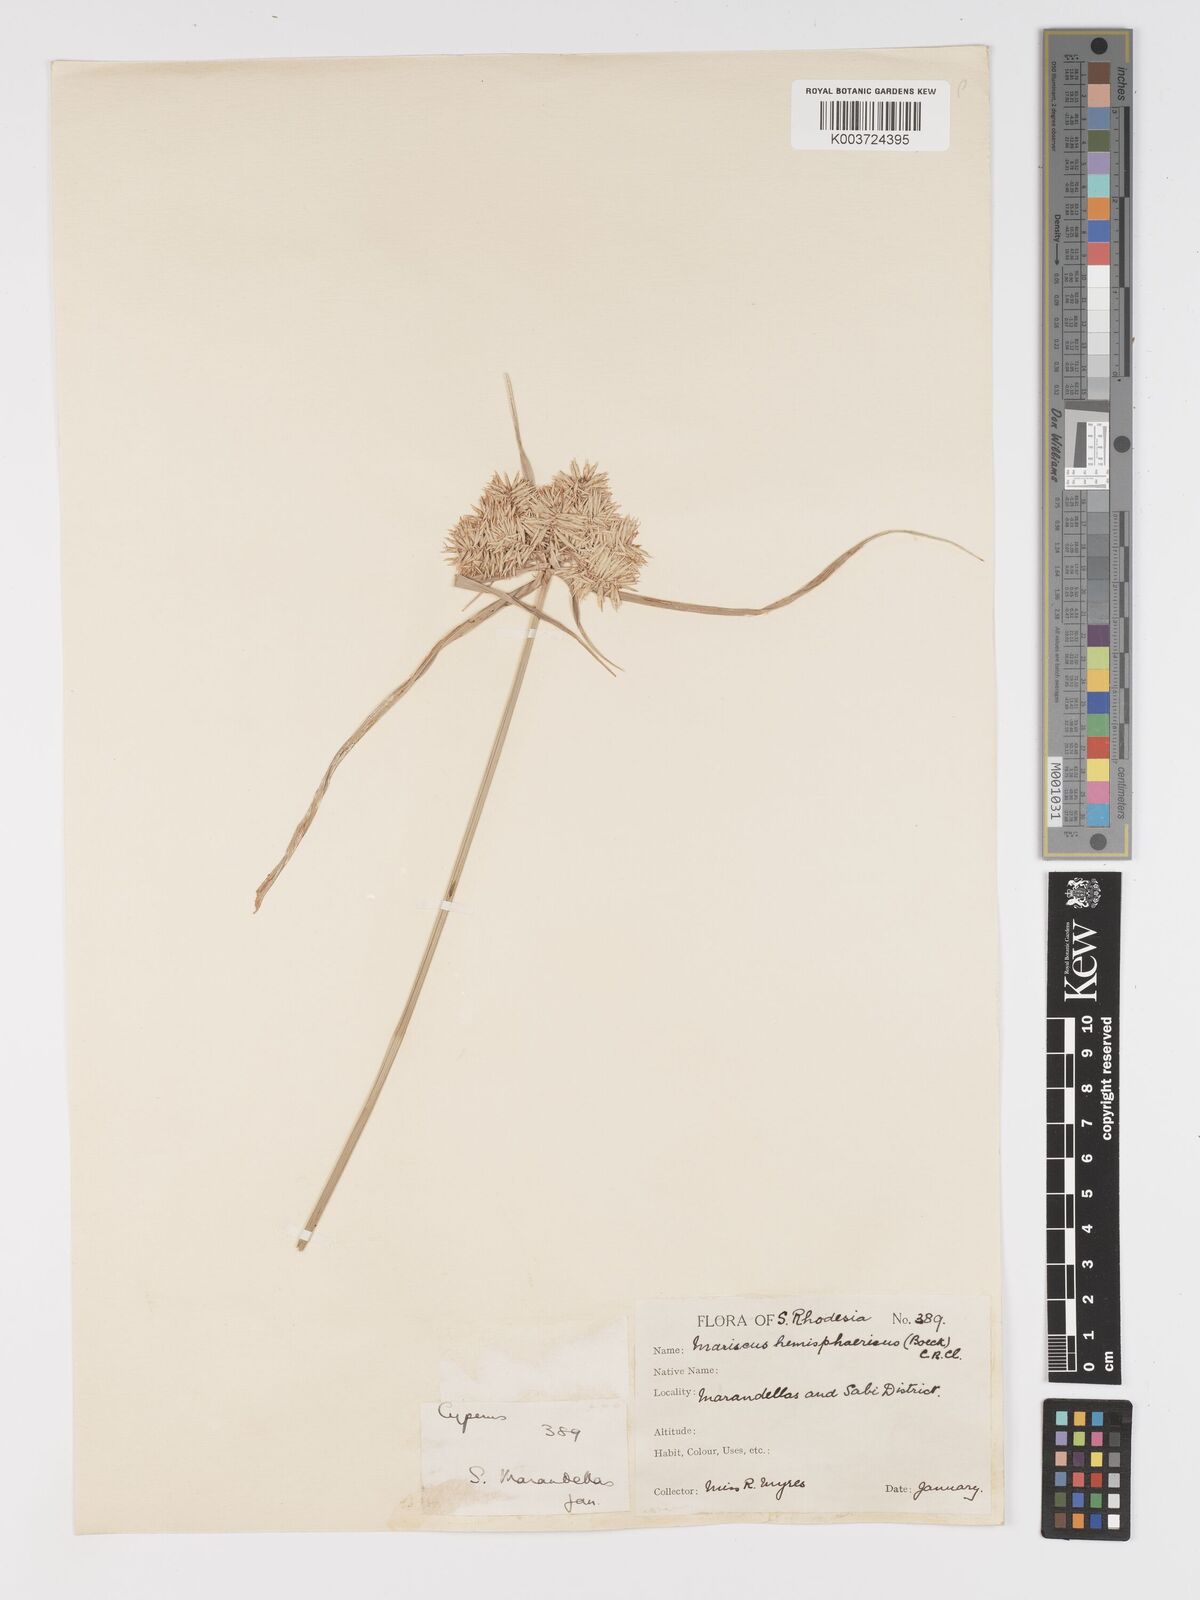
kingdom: Plantae
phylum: Tracheophyta
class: Liliopsida
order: Poales
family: Cyperaceae
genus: Cyperus
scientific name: Cyperus hemisphaericus
